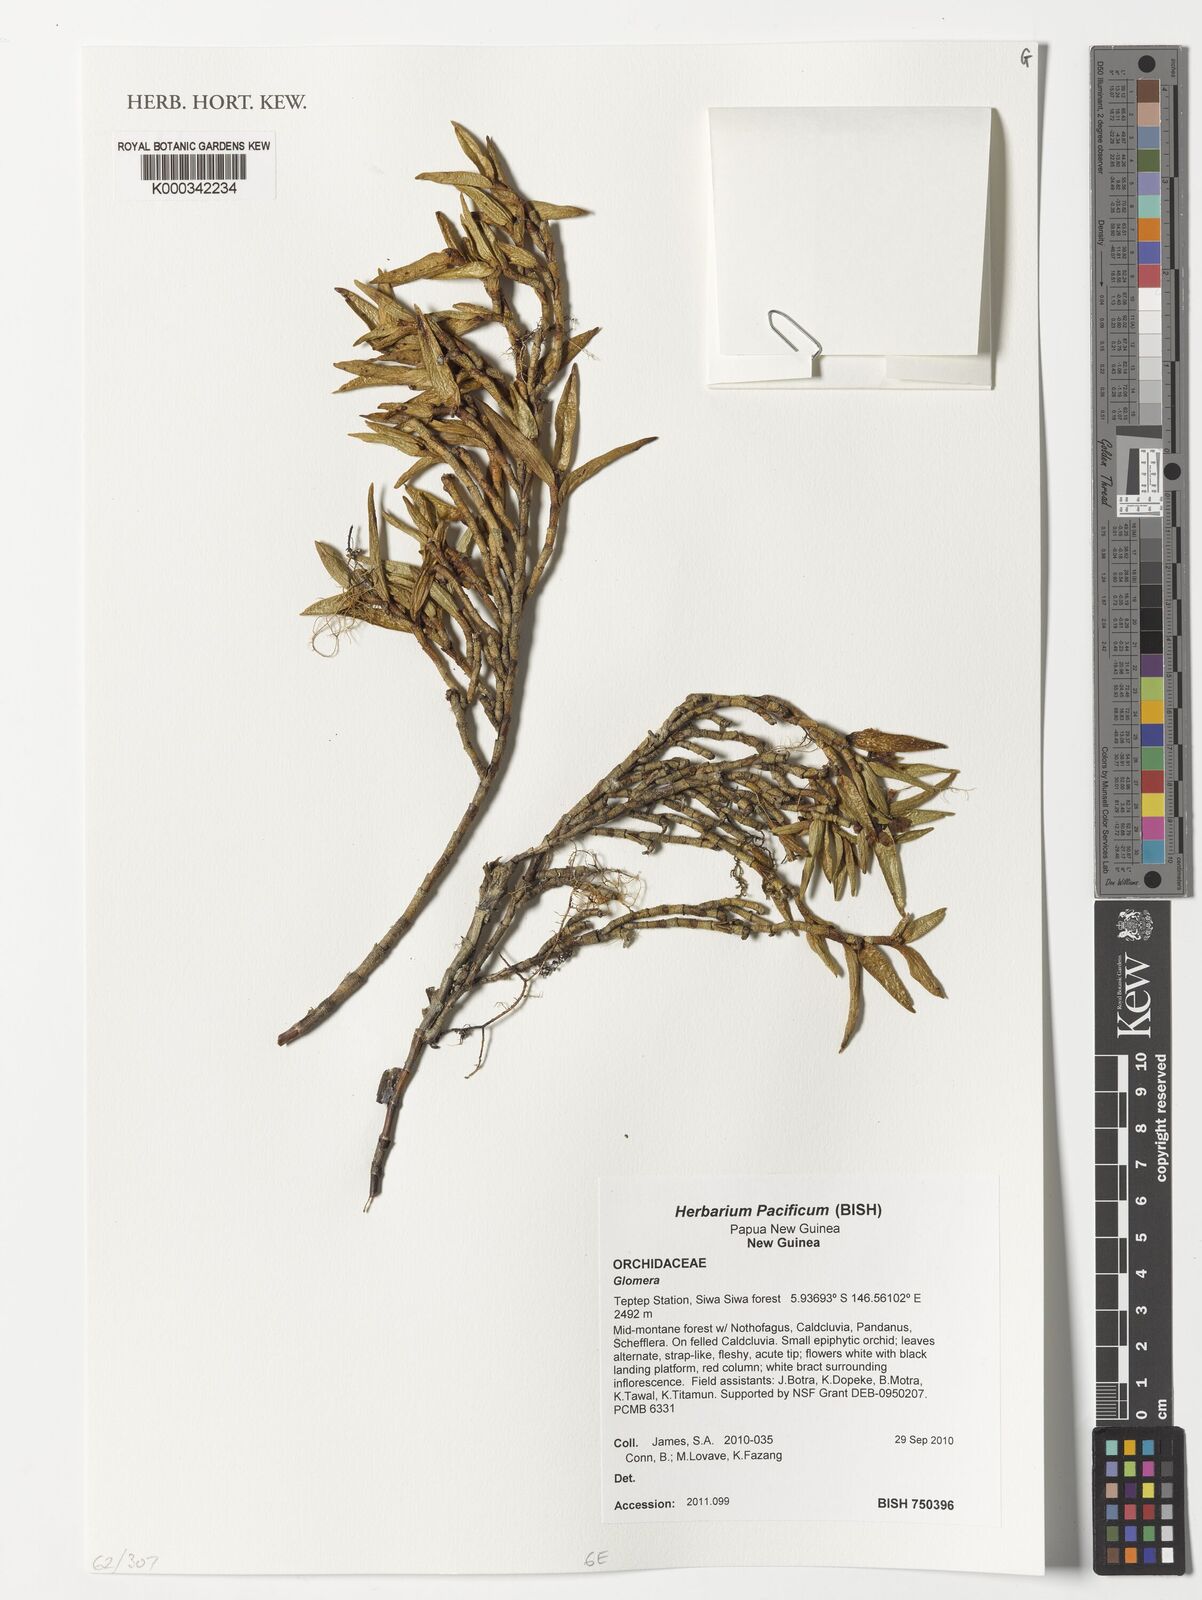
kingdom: Plantae
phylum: Tracheophyta
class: Liliopsida
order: Asparagales
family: Orchidaceae
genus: Glomera
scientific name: Glomera
